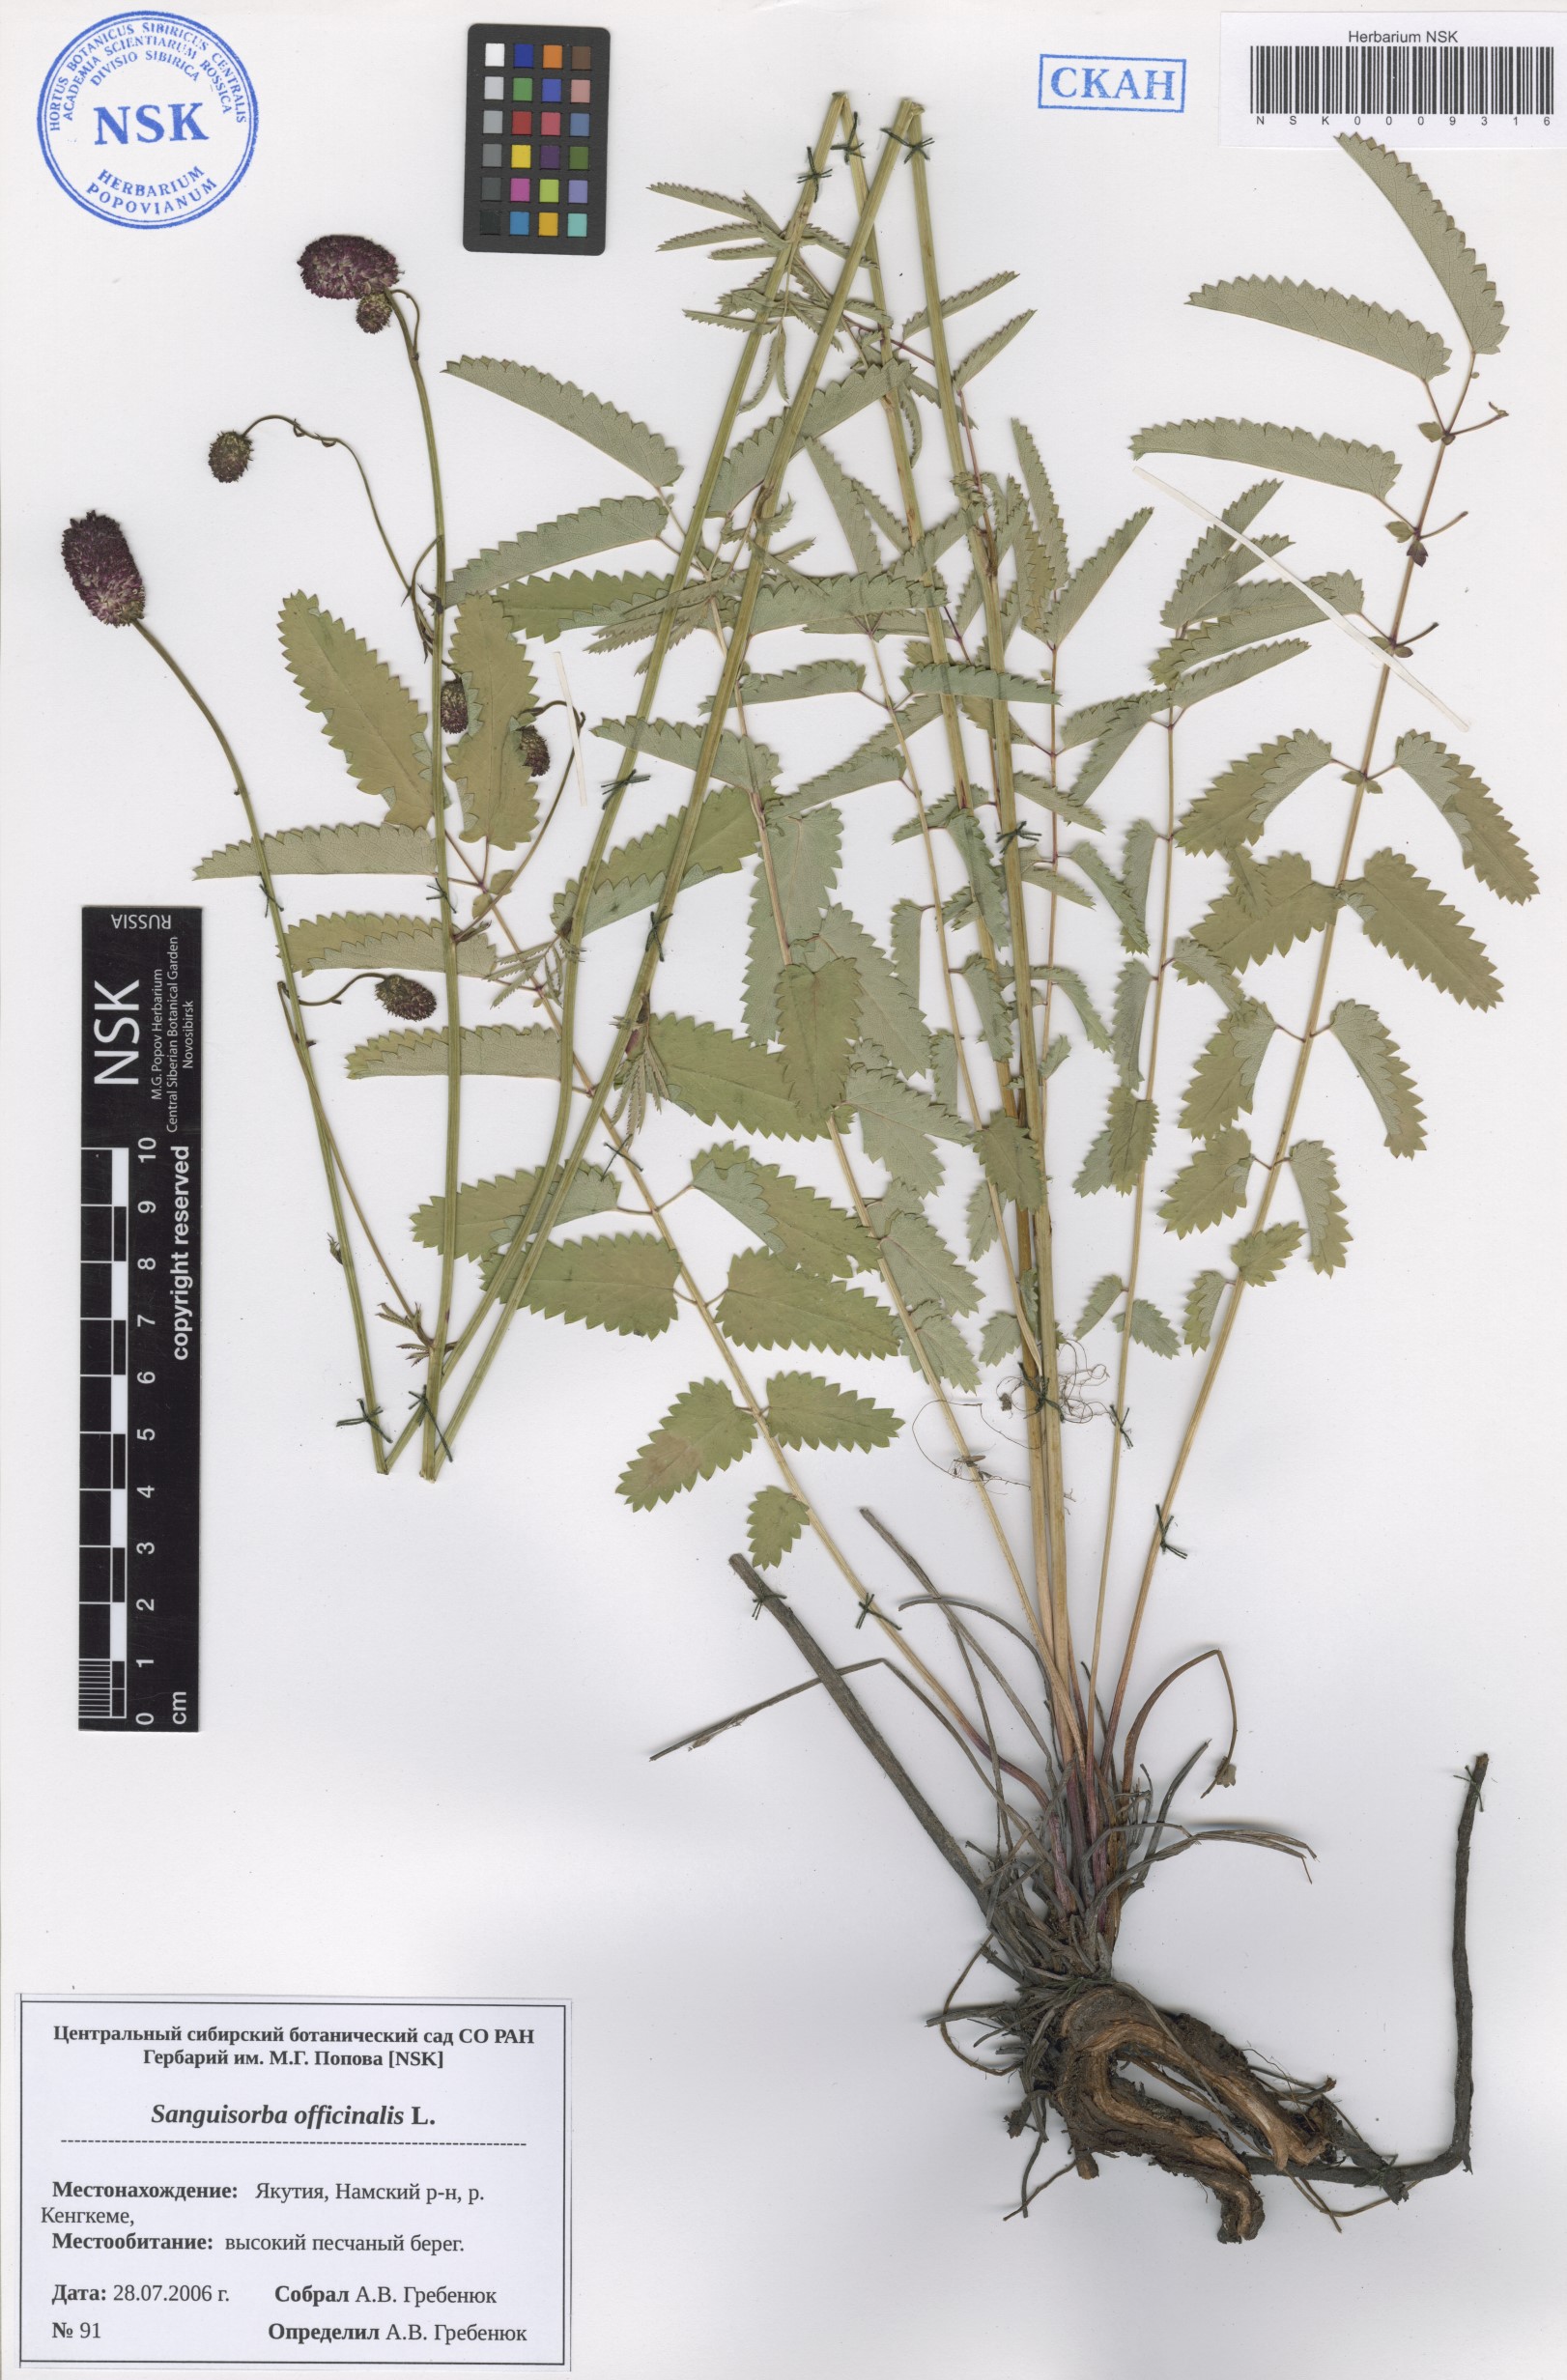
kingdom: Plantae
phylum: Tracheophyta
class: Magnoliopsida
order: Rosales
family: Rosaceae
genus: Sanguisorba
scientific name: Sanguisorba officinalis
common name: Great burnet
